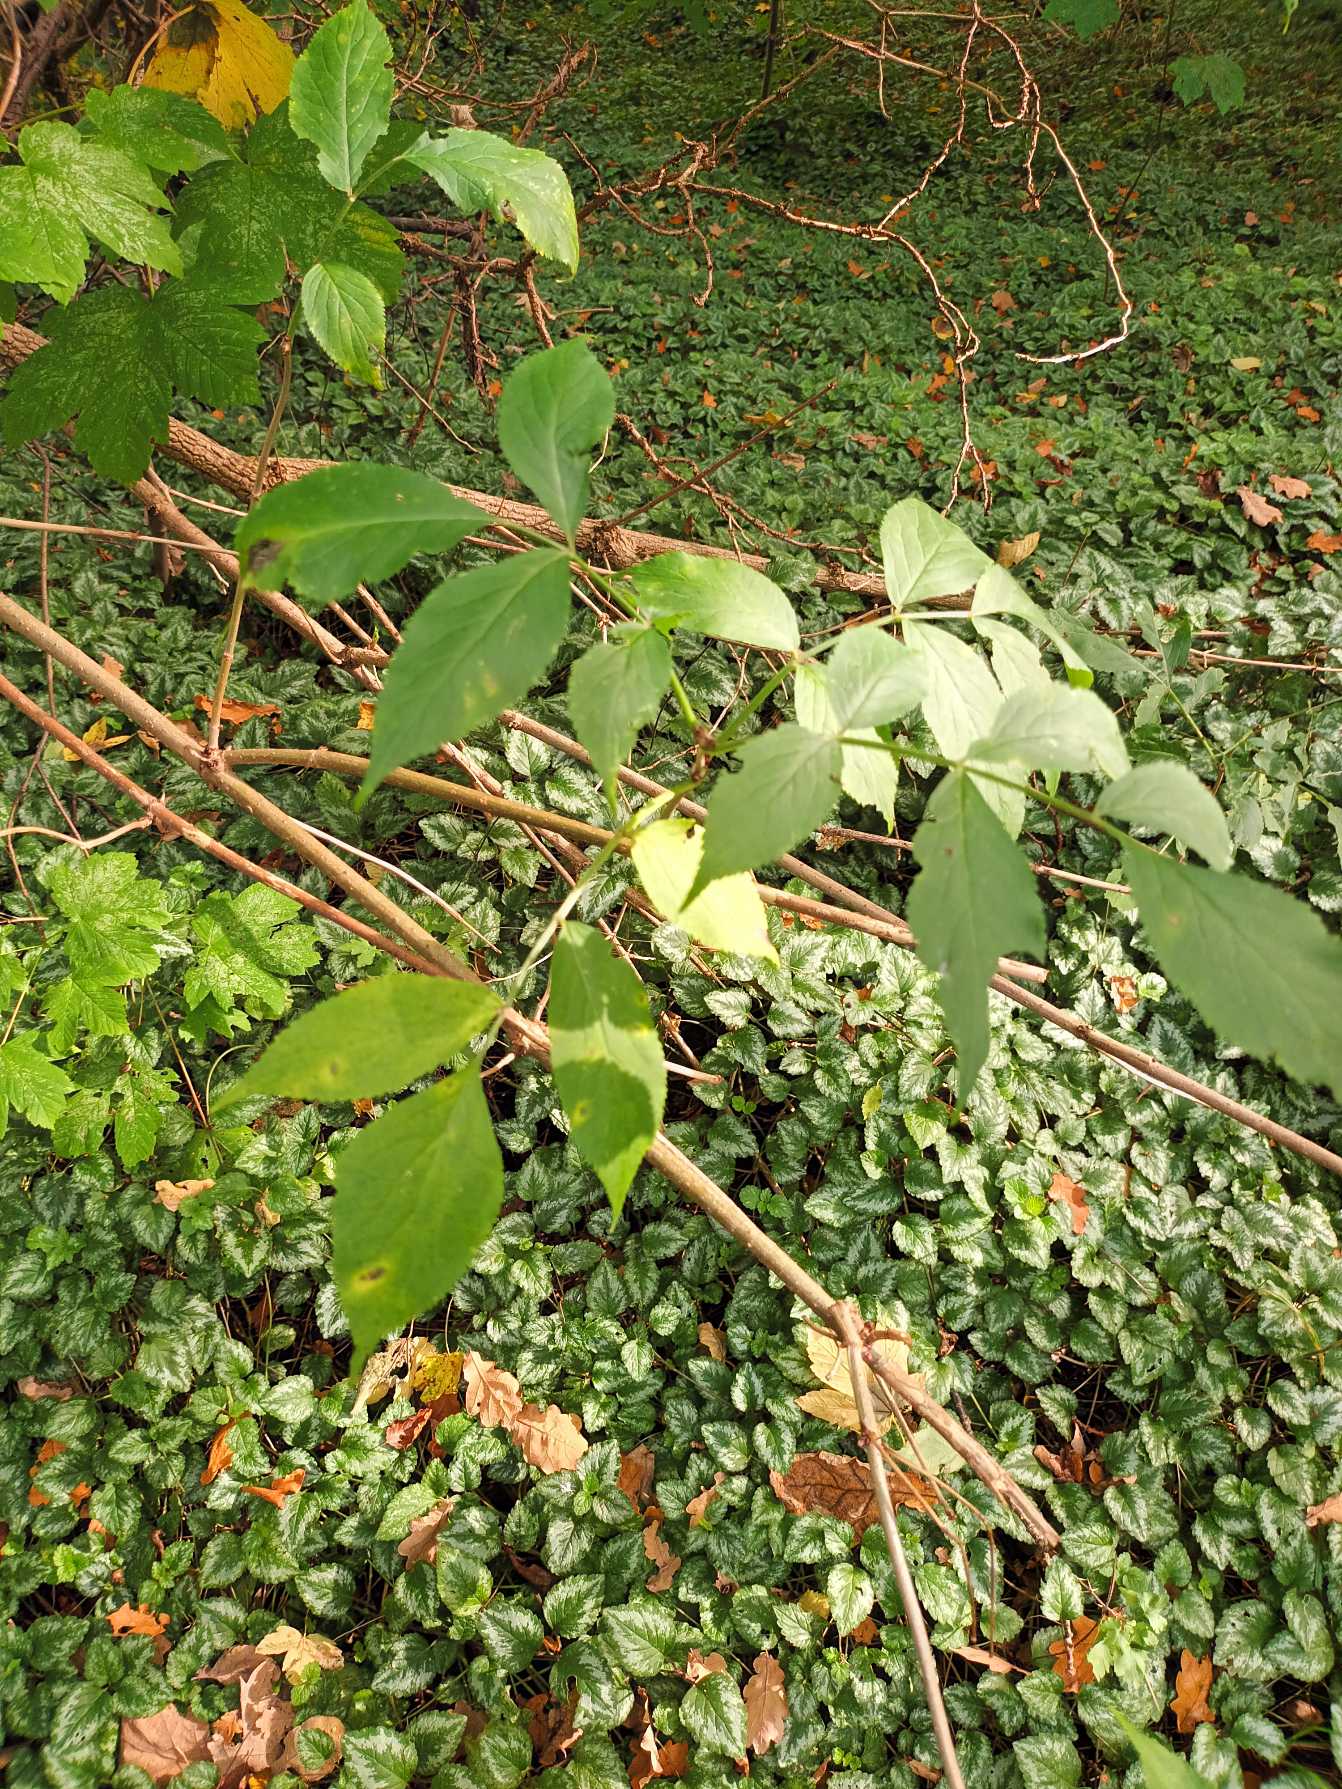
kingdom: Plantae
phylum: Tracheophyta
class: Magnoliopsida
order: Dipsacales
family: Viburnaceae
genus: Sambucus
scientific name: Sambucus nigra
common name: Almindelig hyld
